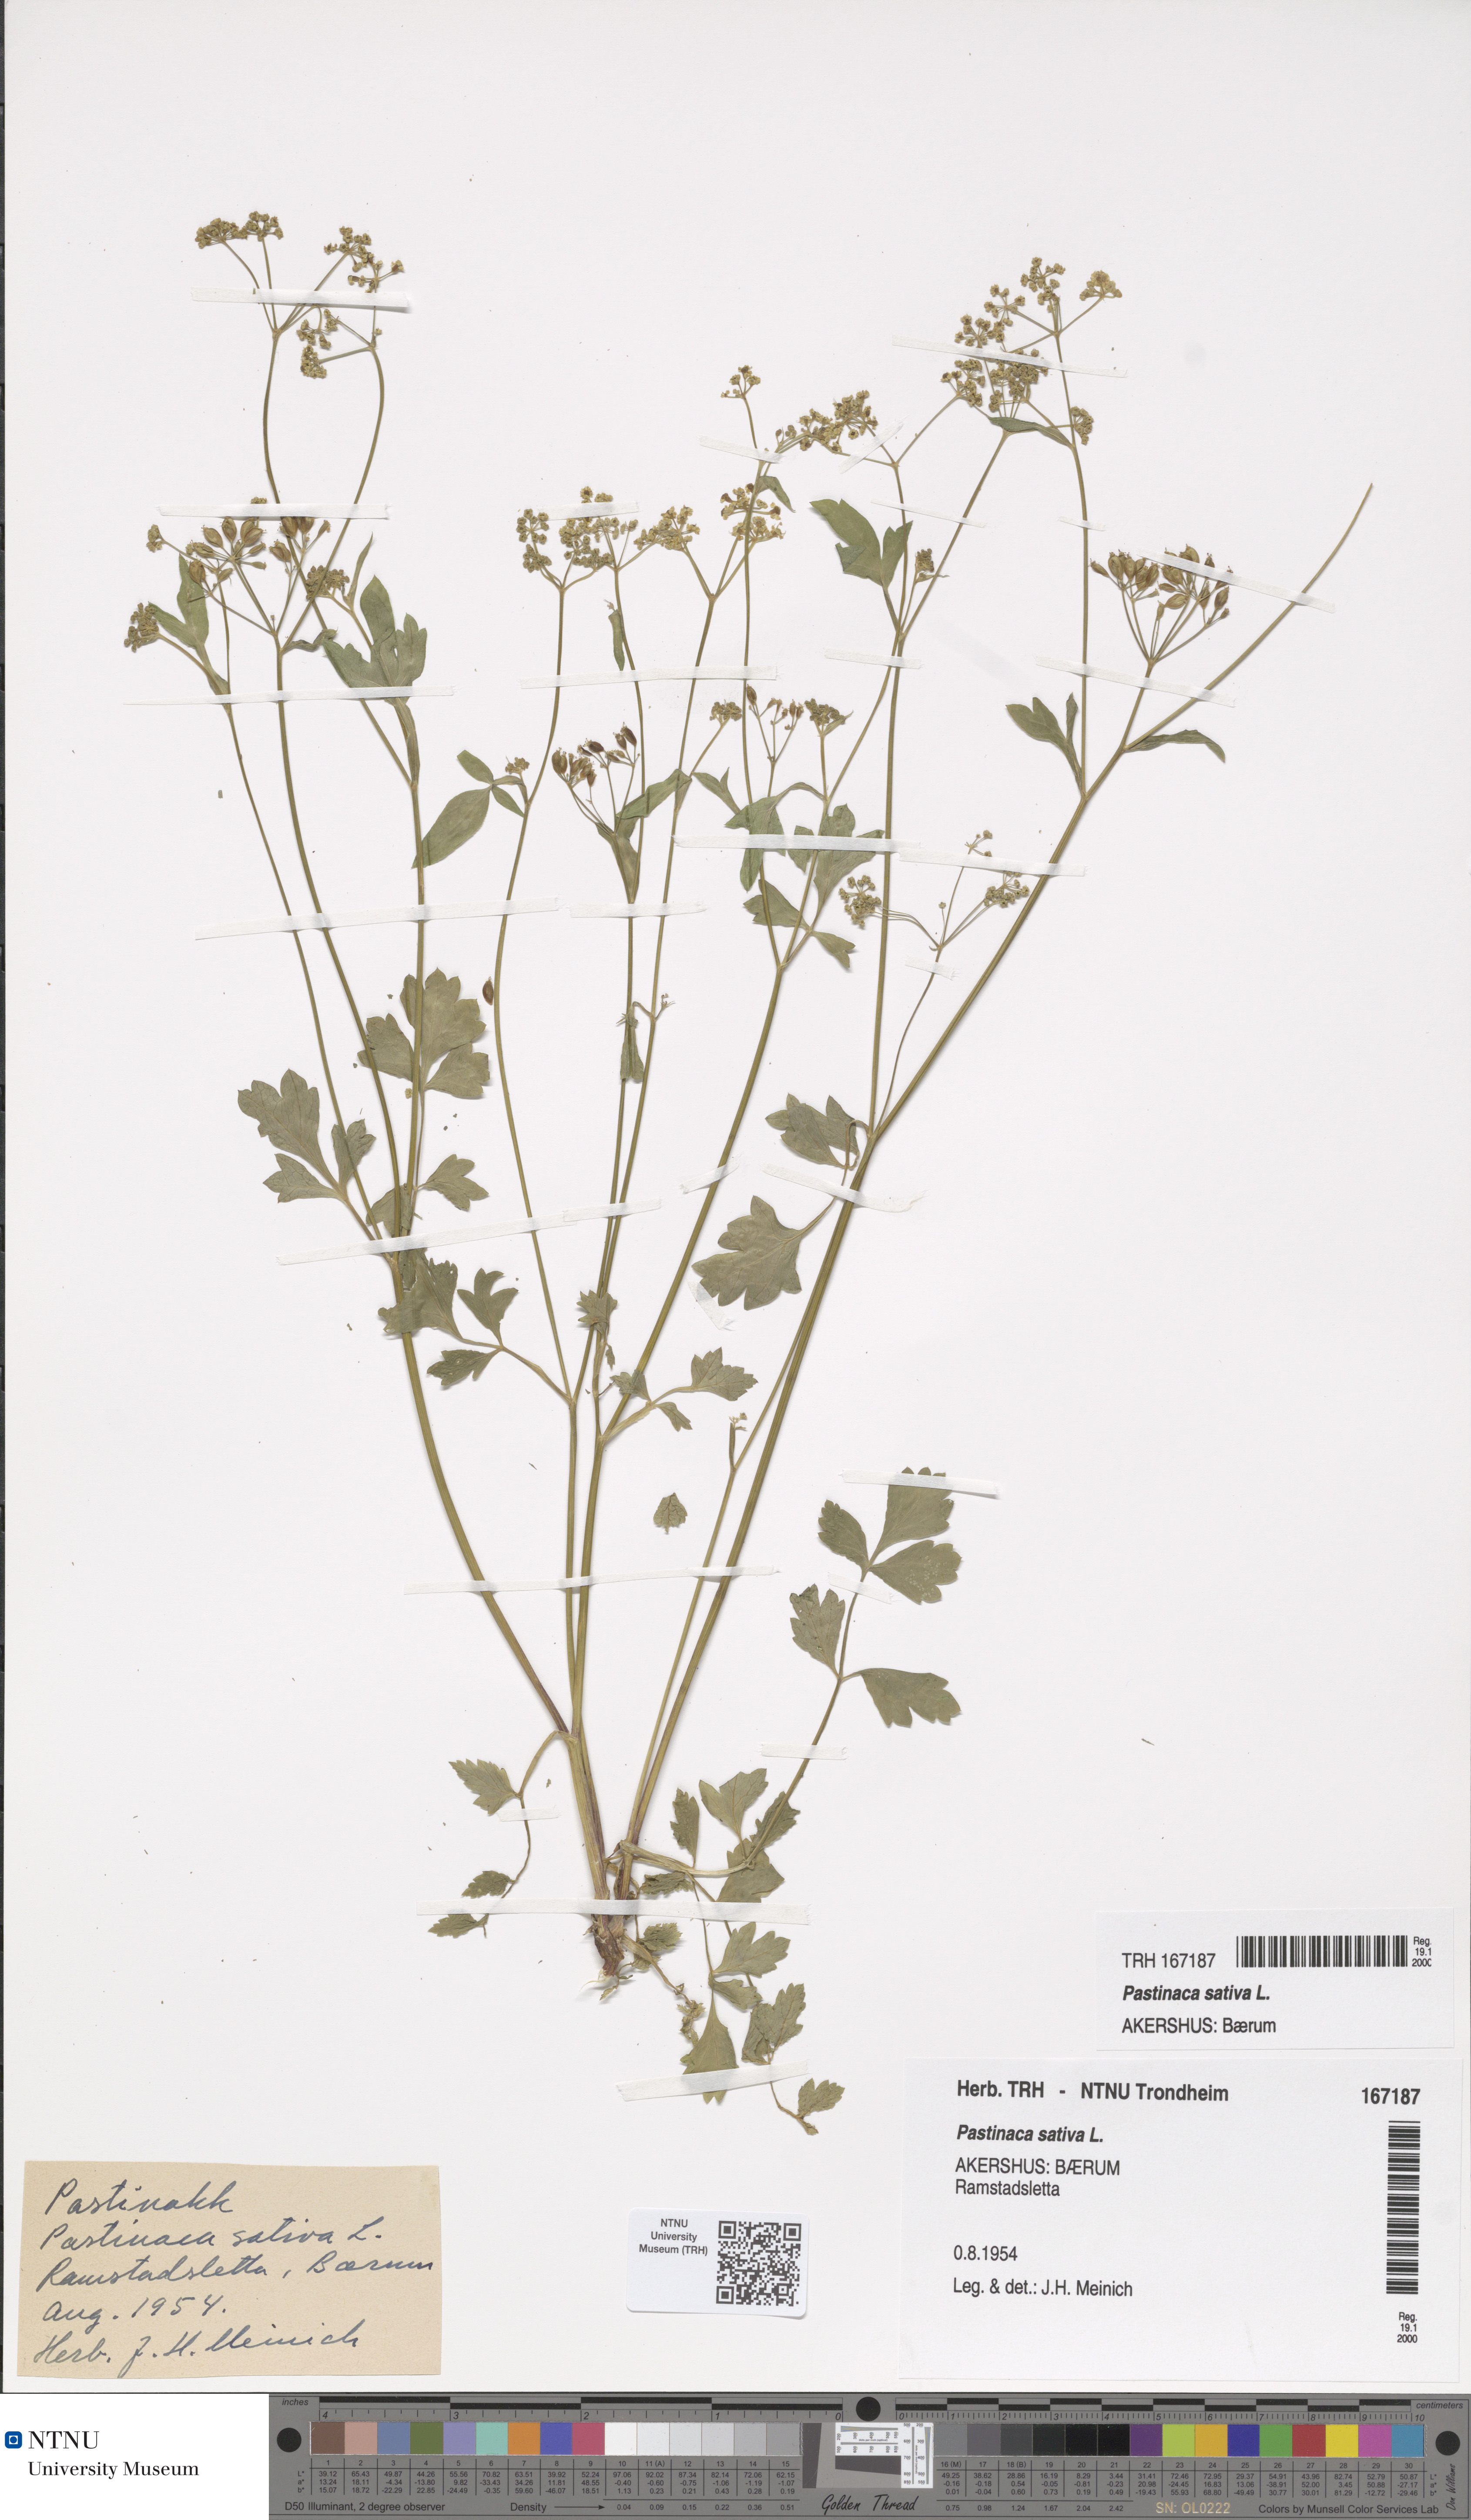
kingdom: Plantae
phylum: Tracheophyta
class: Magnoliopsida
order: Apiales
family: Apiaceae
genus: Pastinaca
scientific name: Pastinaca sativa
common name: Wild parsnip
